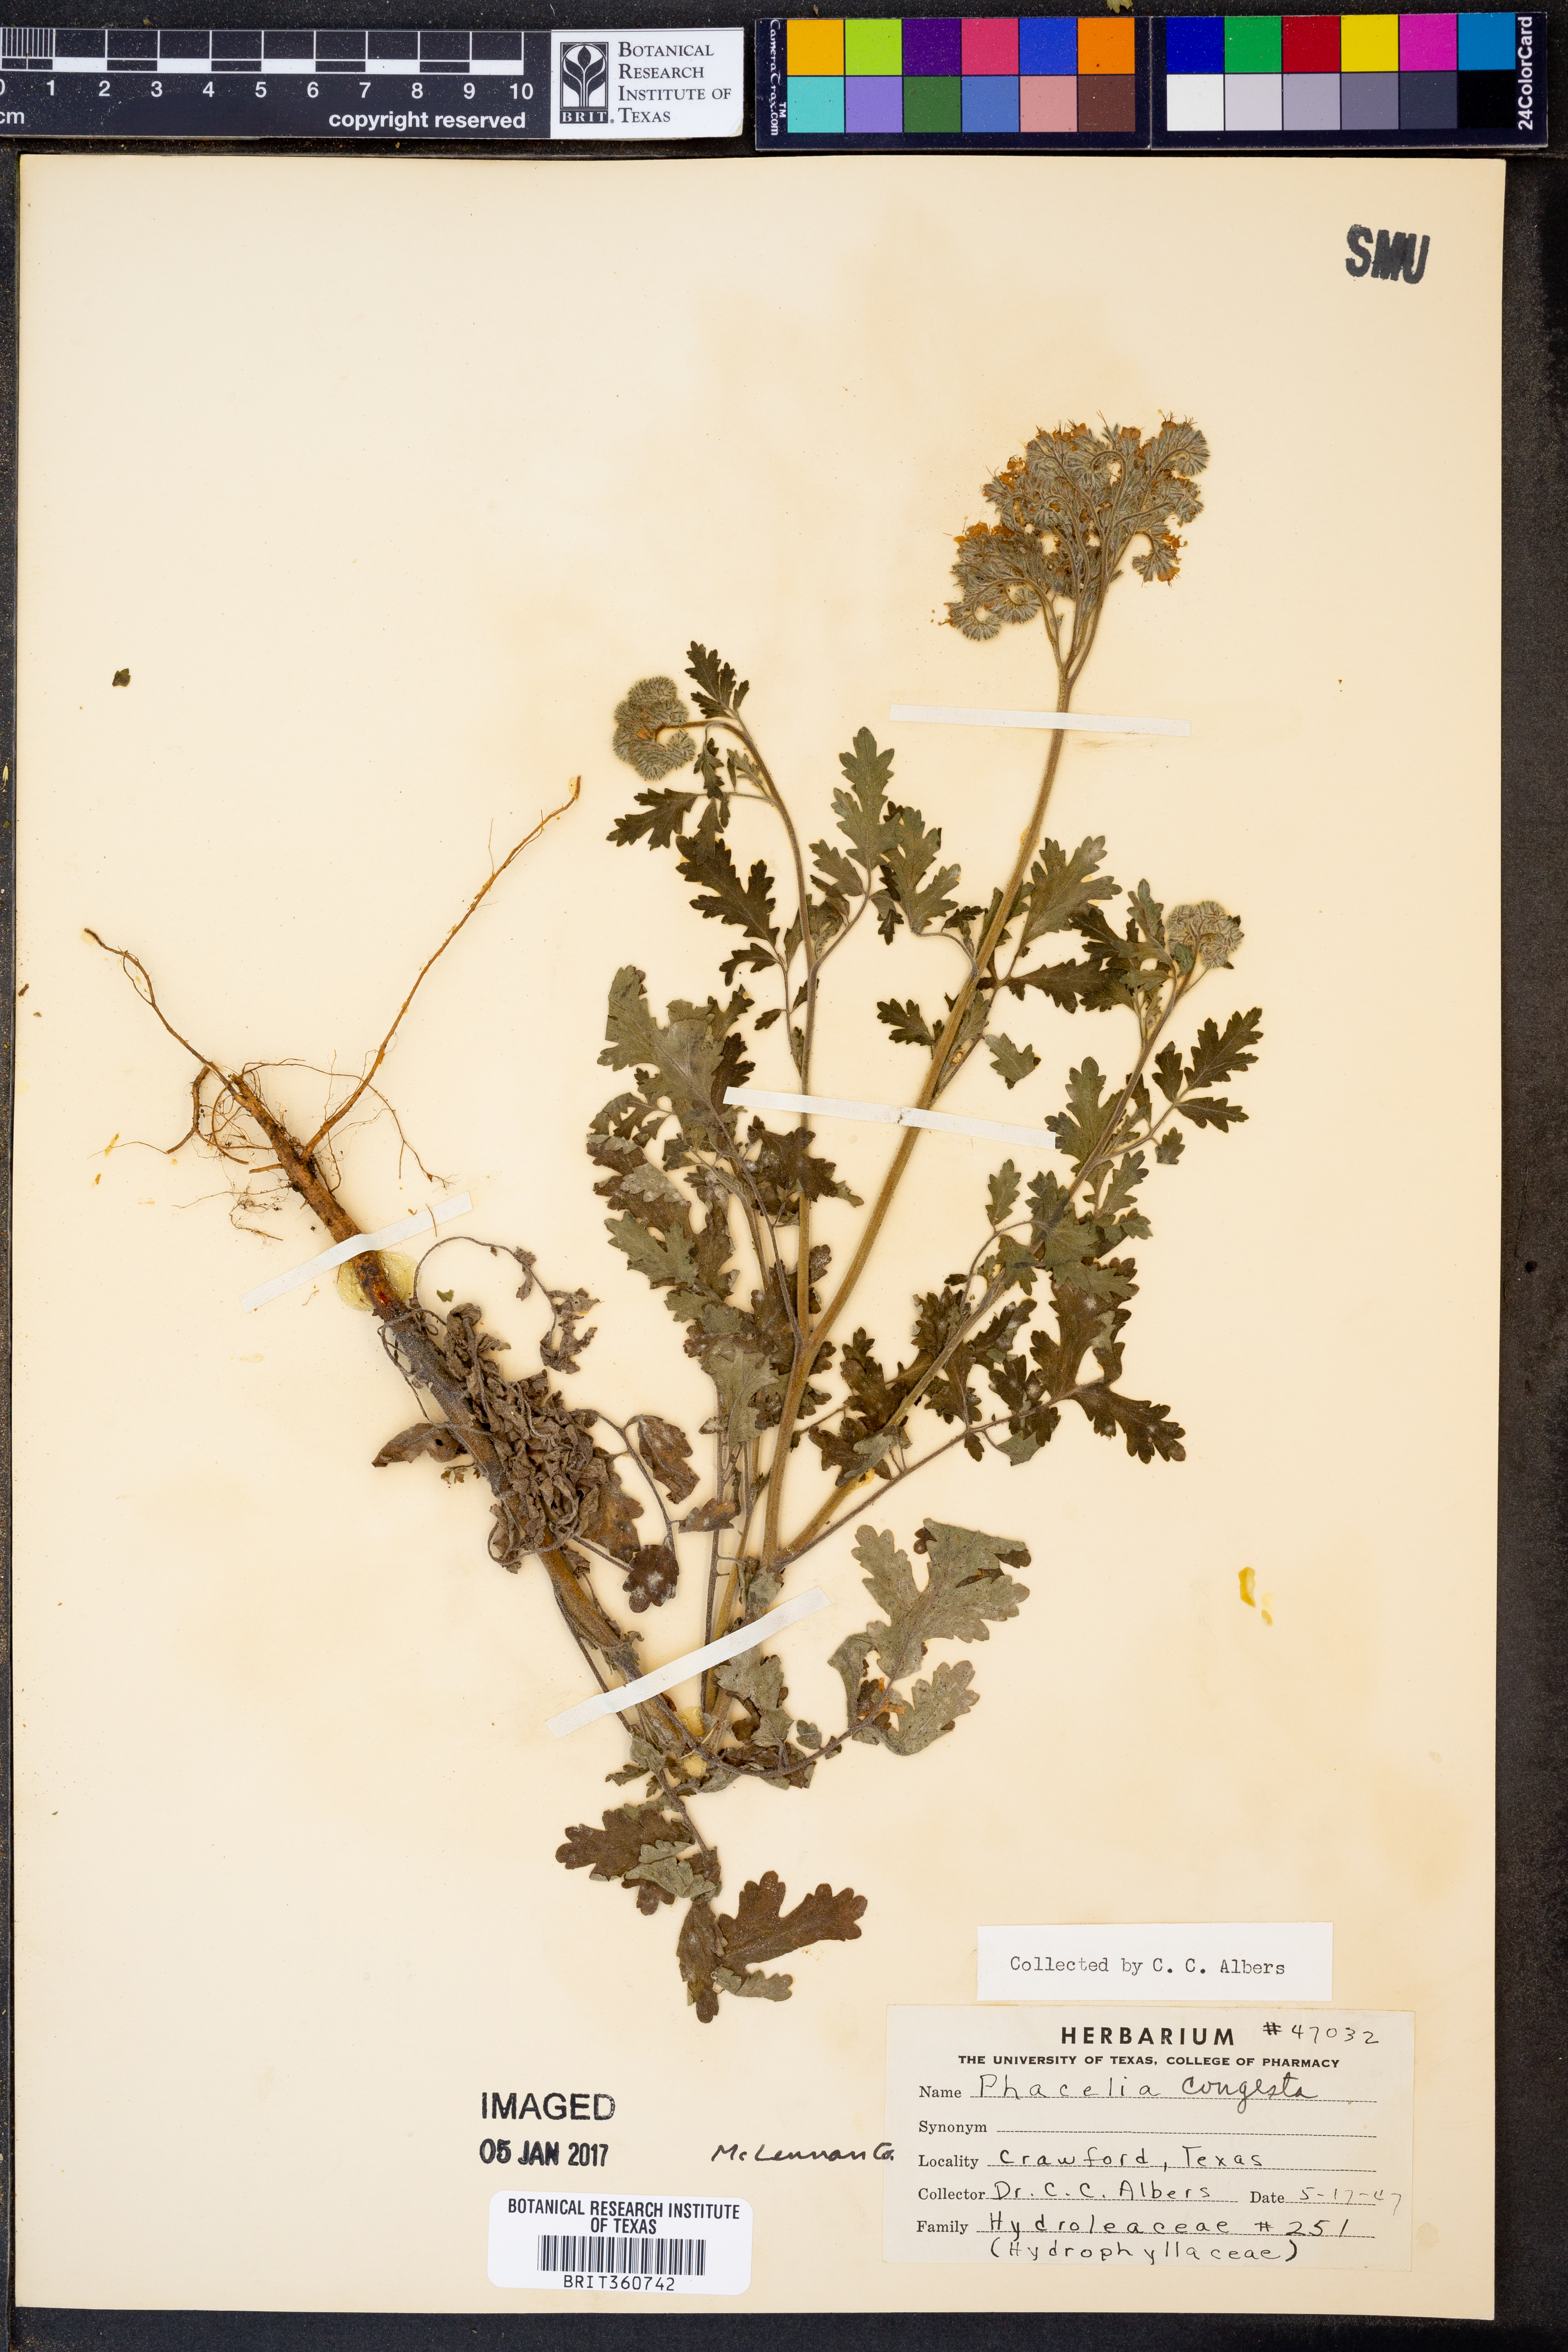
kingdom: Plantae
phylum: Tracheophyta
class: Magnoliopsida
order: Boraginales
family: Hydrophyllaceae
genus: Phacelia
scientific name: Phacelia congesta
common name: Blue curls
